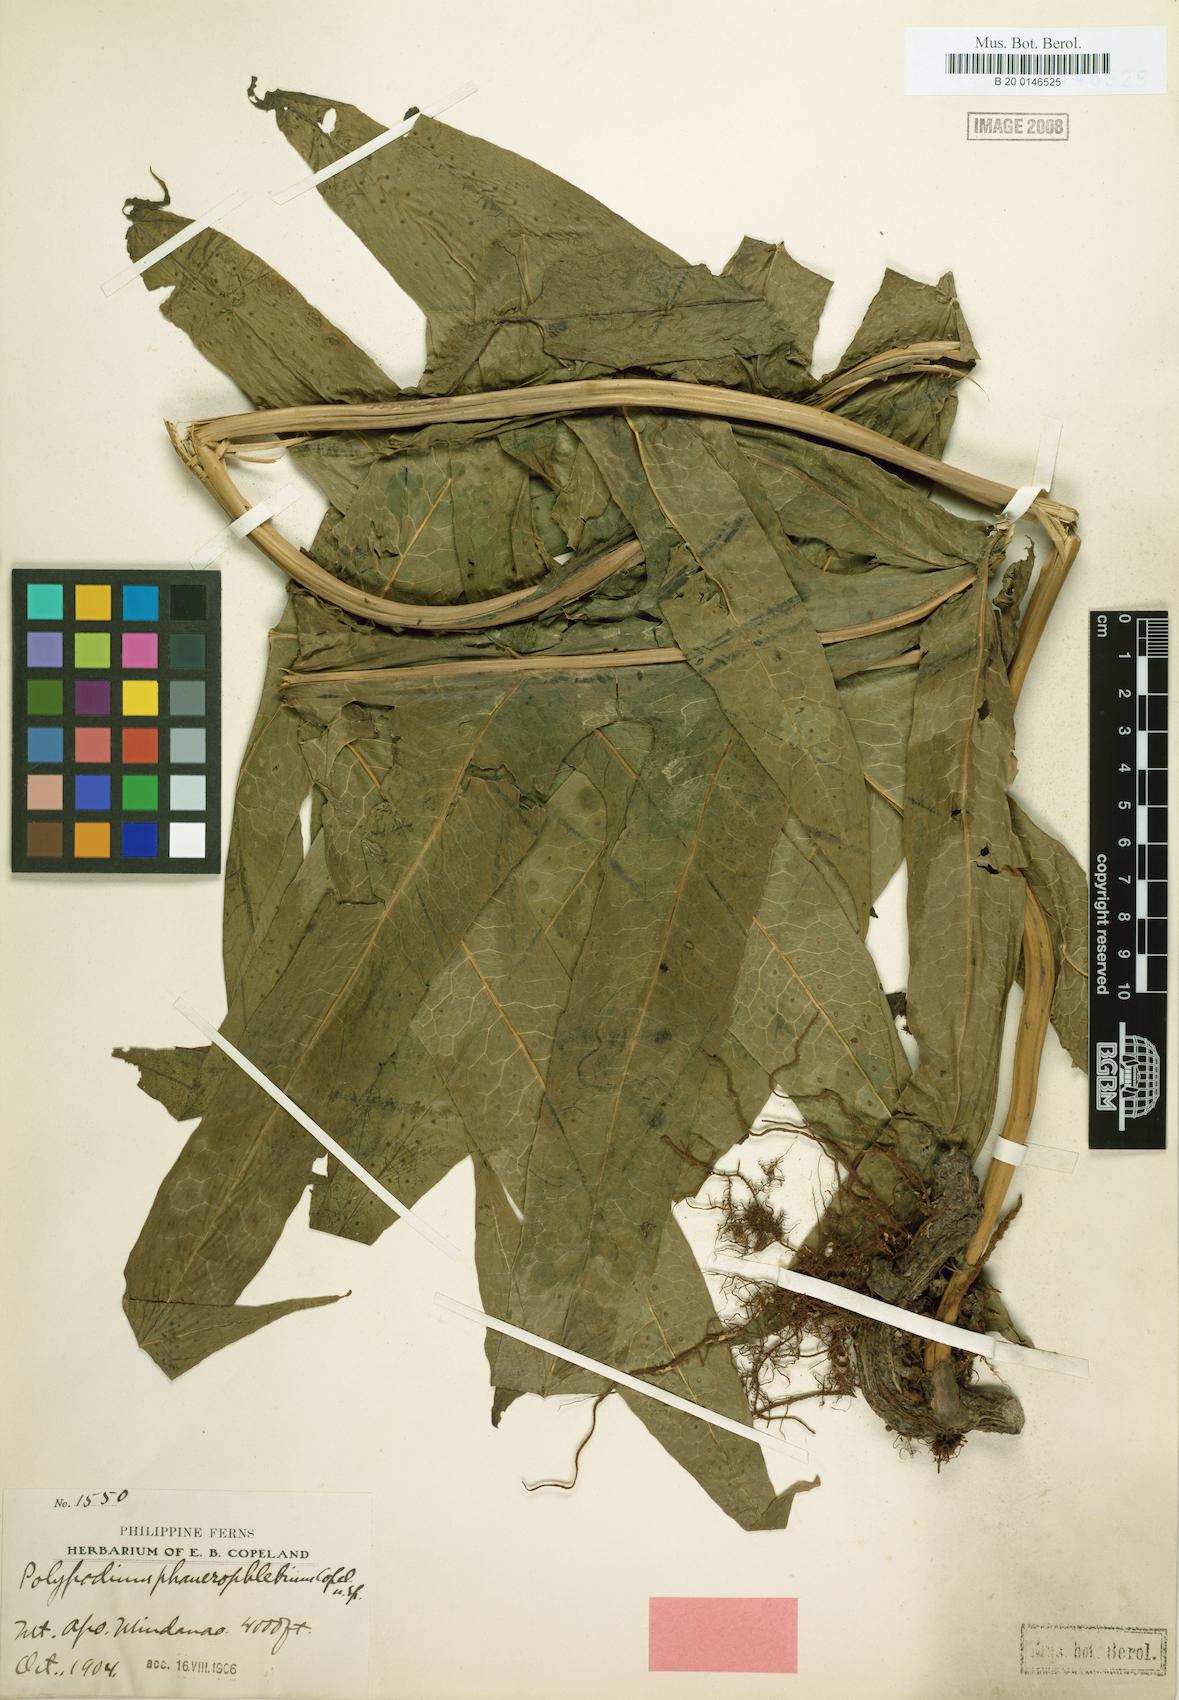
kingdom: Plantae
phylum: Tracheophyta
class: Polypodiopsida
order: Polypodiales
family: Polypodiaceae
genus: Microsorum
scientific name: Microsorum commutatum
